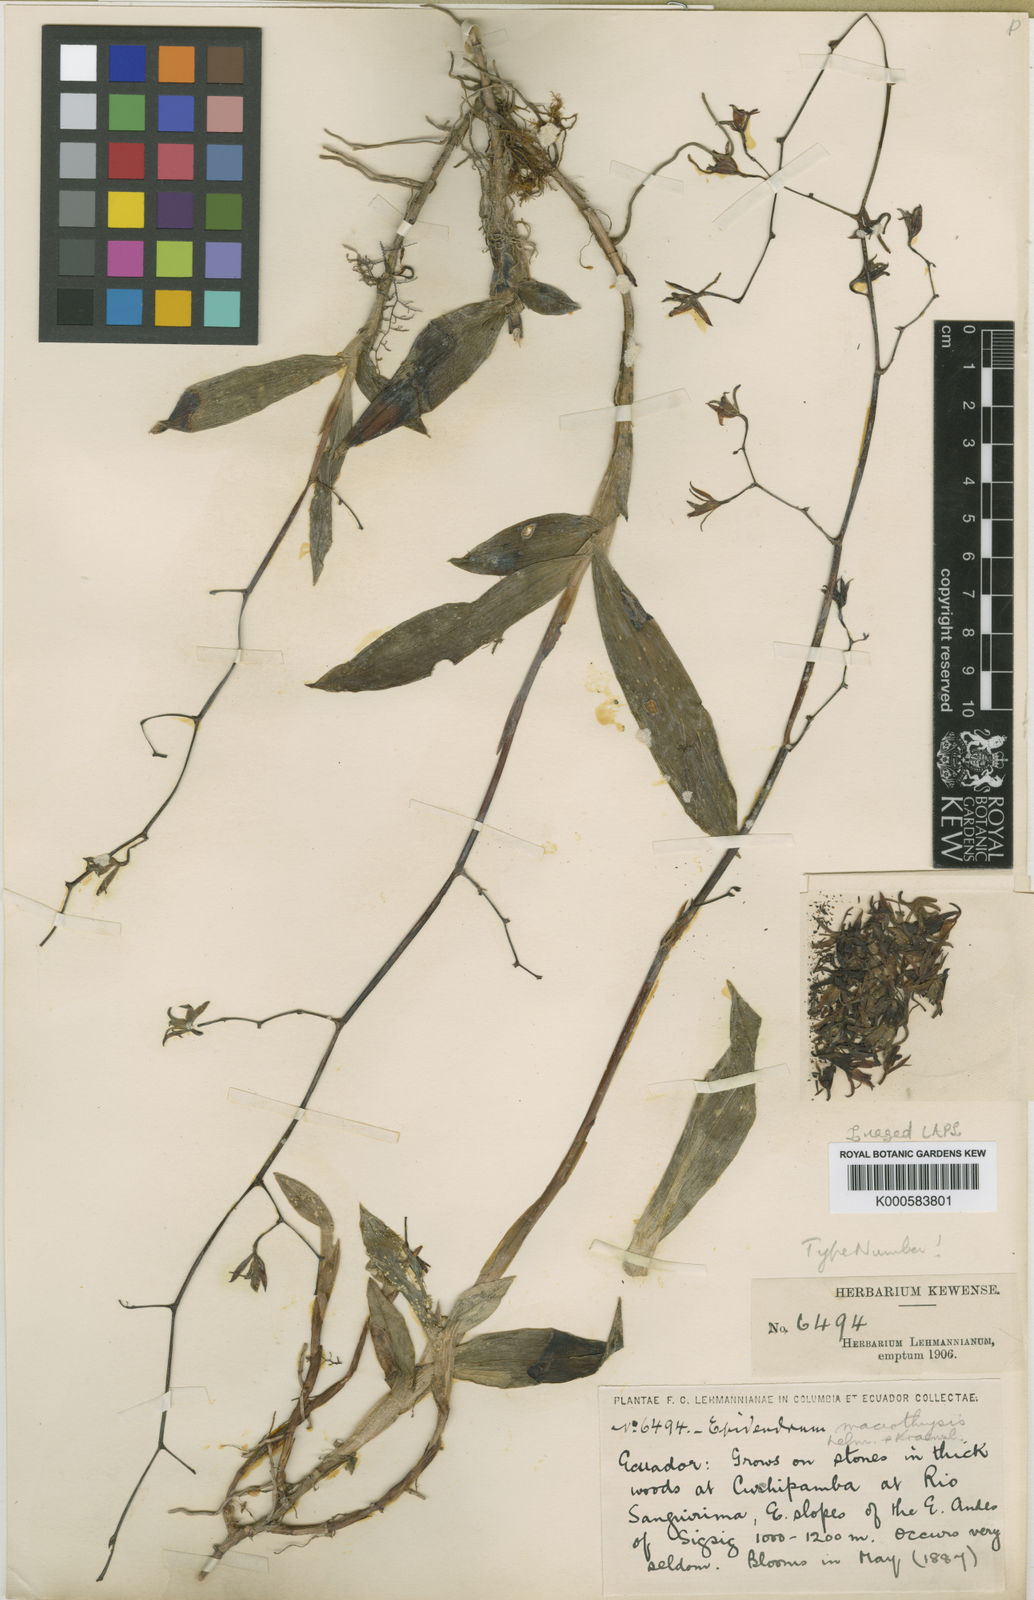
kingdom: Plantae
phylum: Tracheophyta
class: Liliopsida
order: Asparagales
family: Orchidaceae
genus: Epidendrum
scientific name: Epidendrum compressum
